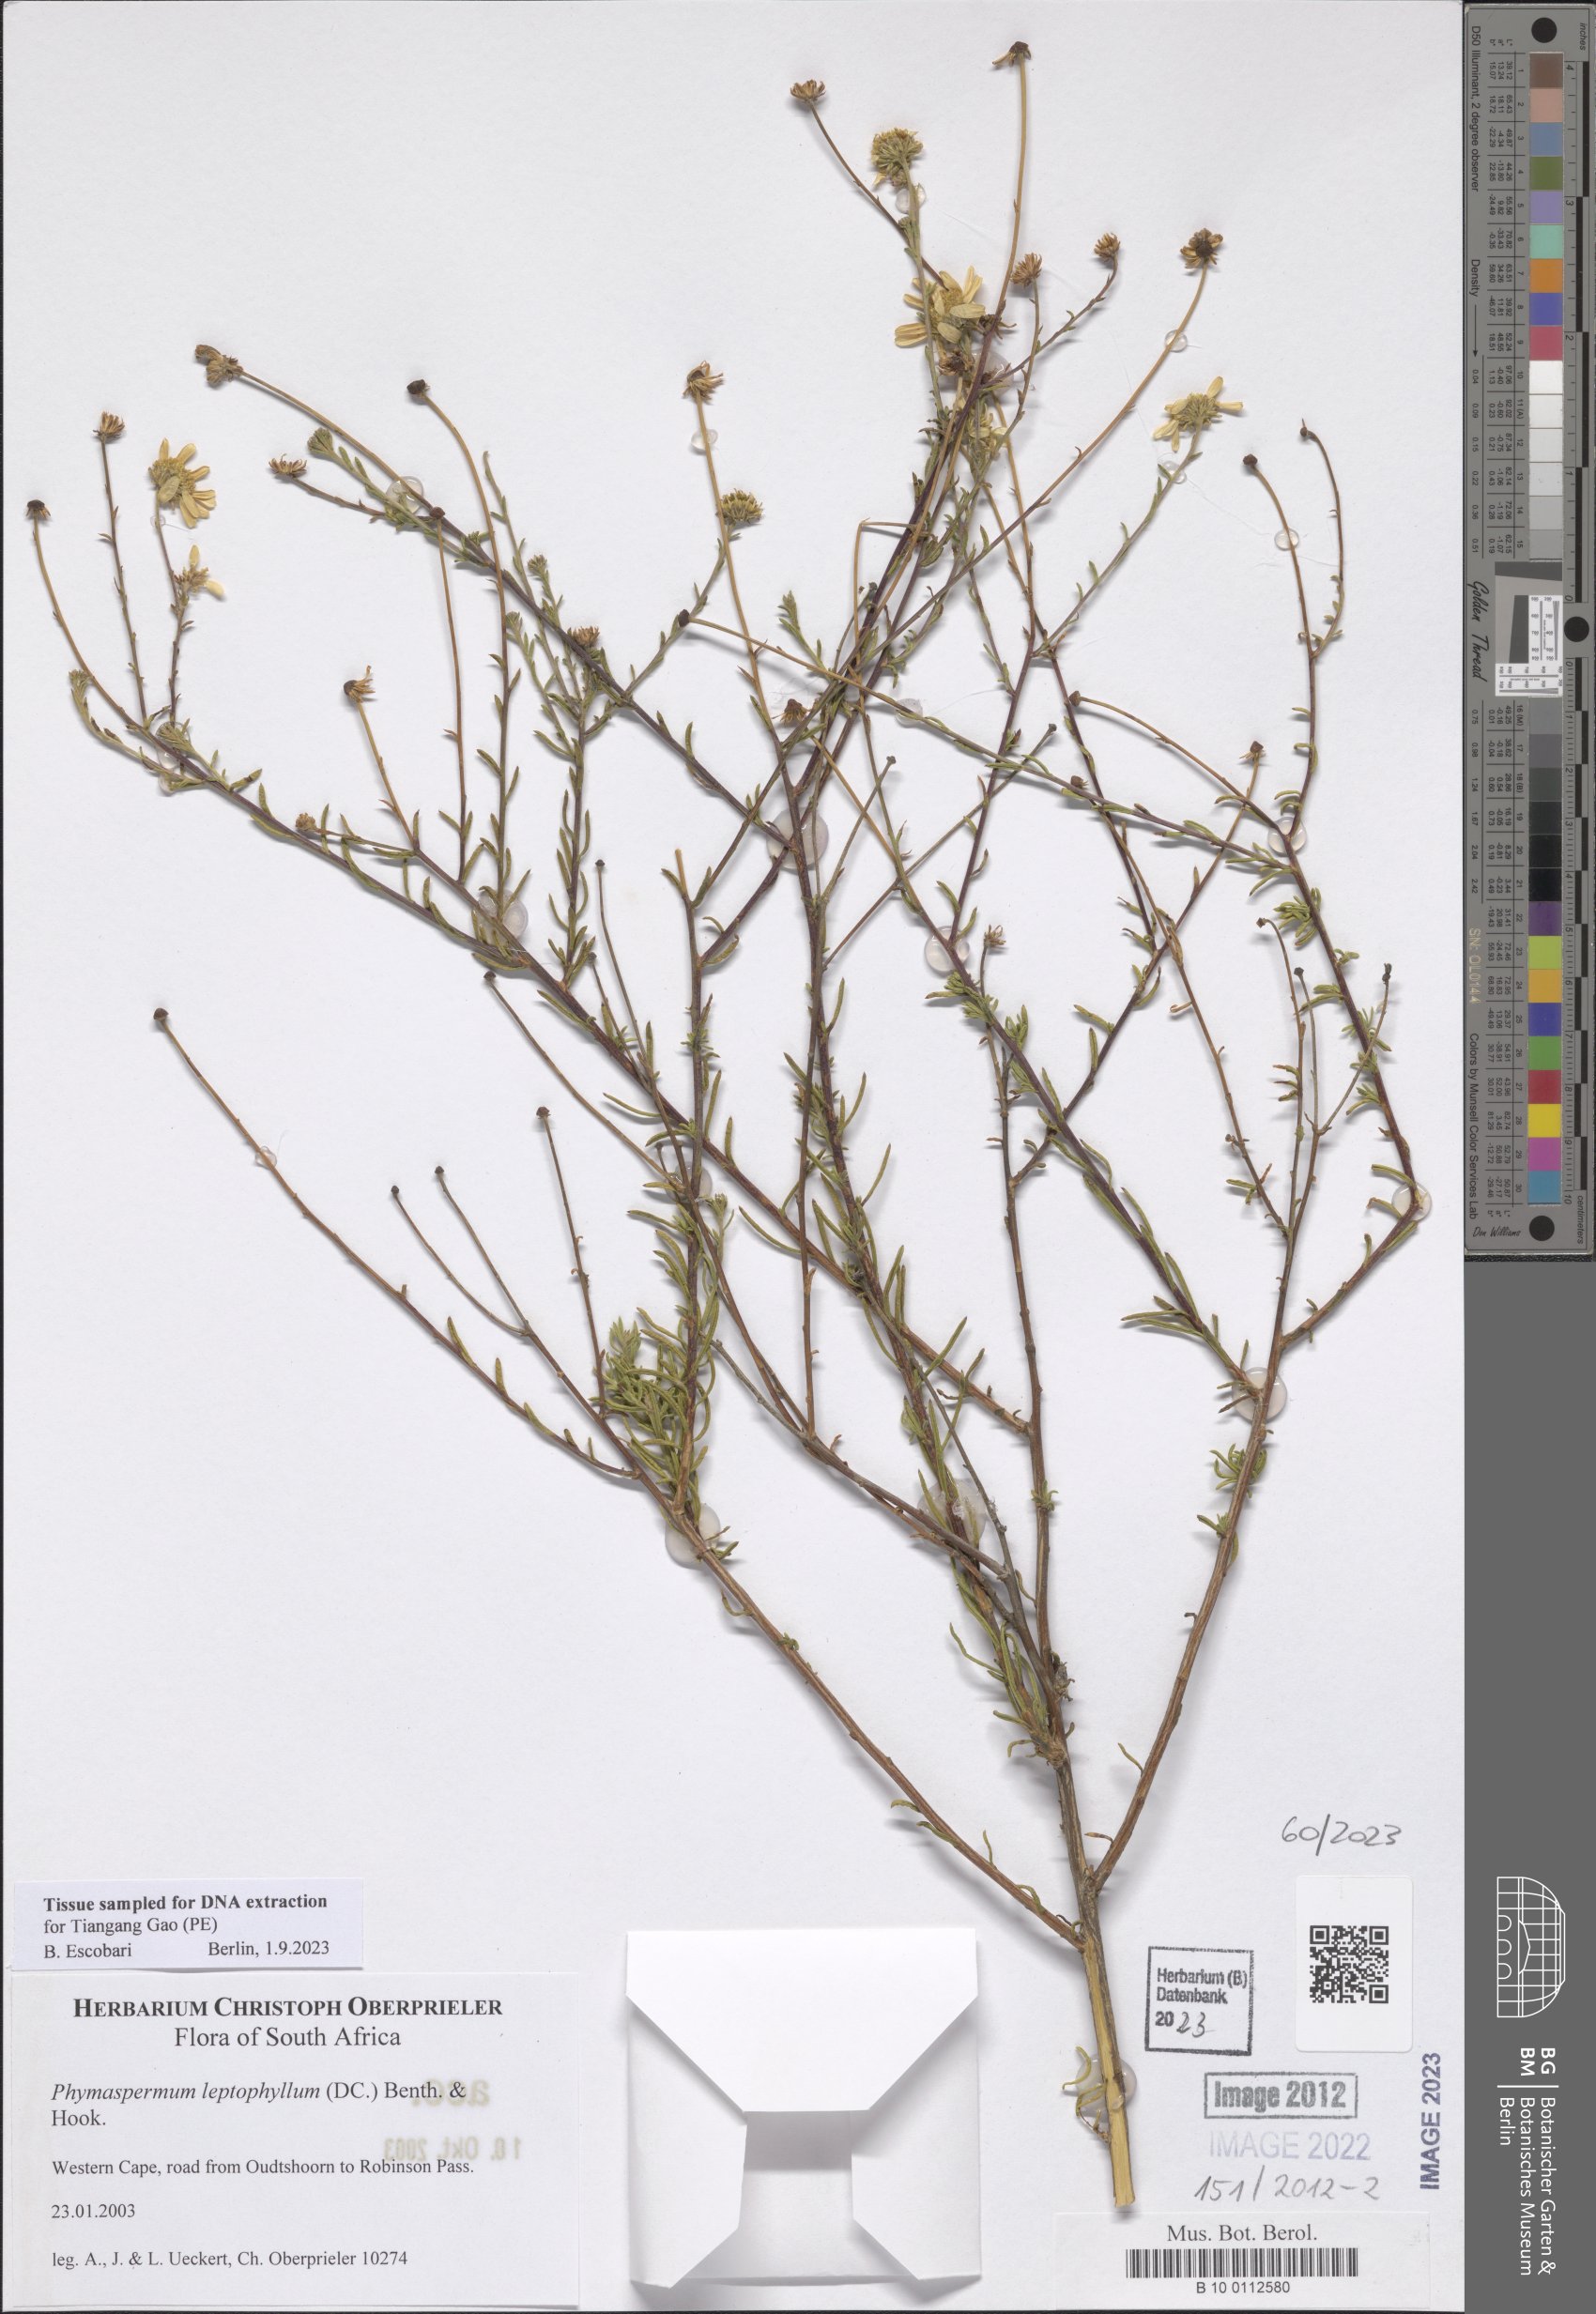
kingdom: Plantae
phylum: Tracheophyta
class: Magnoliopsida
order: Asterales
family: Asteraceae
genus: Phymaspermum
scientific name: Phymaspermum leptophyllum
